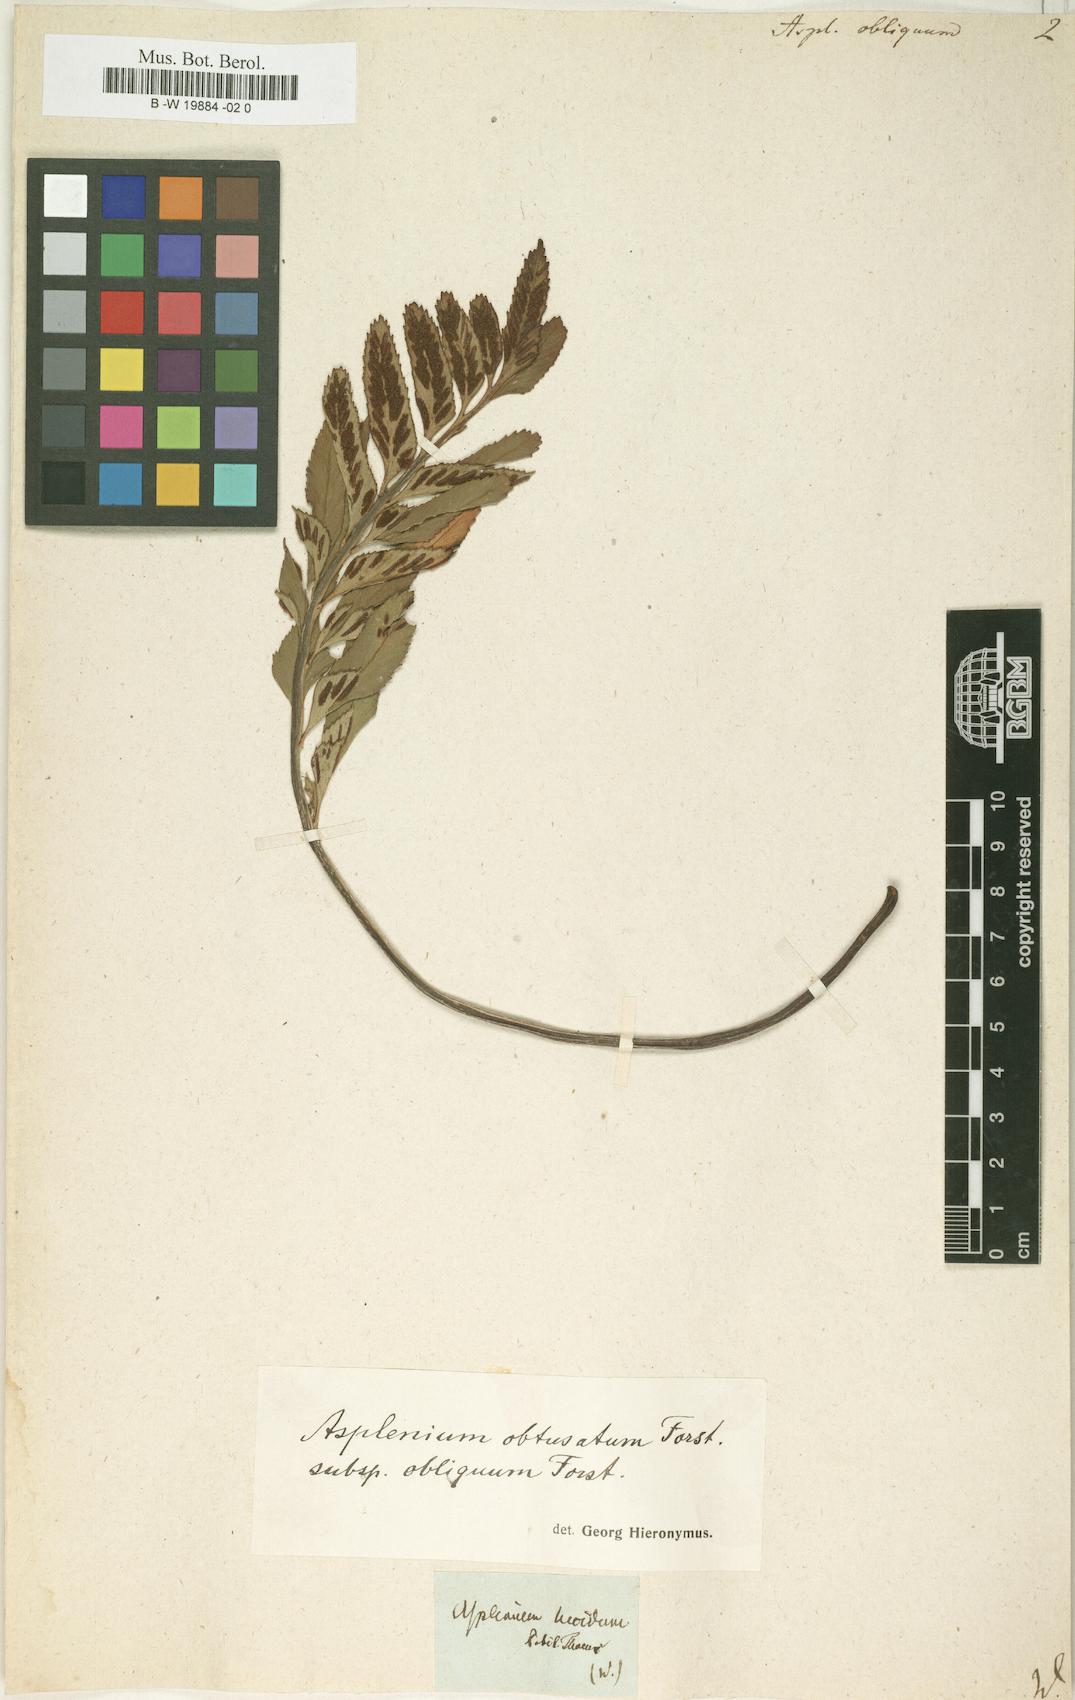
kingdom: Plantae
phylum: Tracheophyta
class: Polypodiopsida
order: Polypodiales
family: Aspleniaceae
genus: Asplenium
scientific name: Asplenium obliquum
